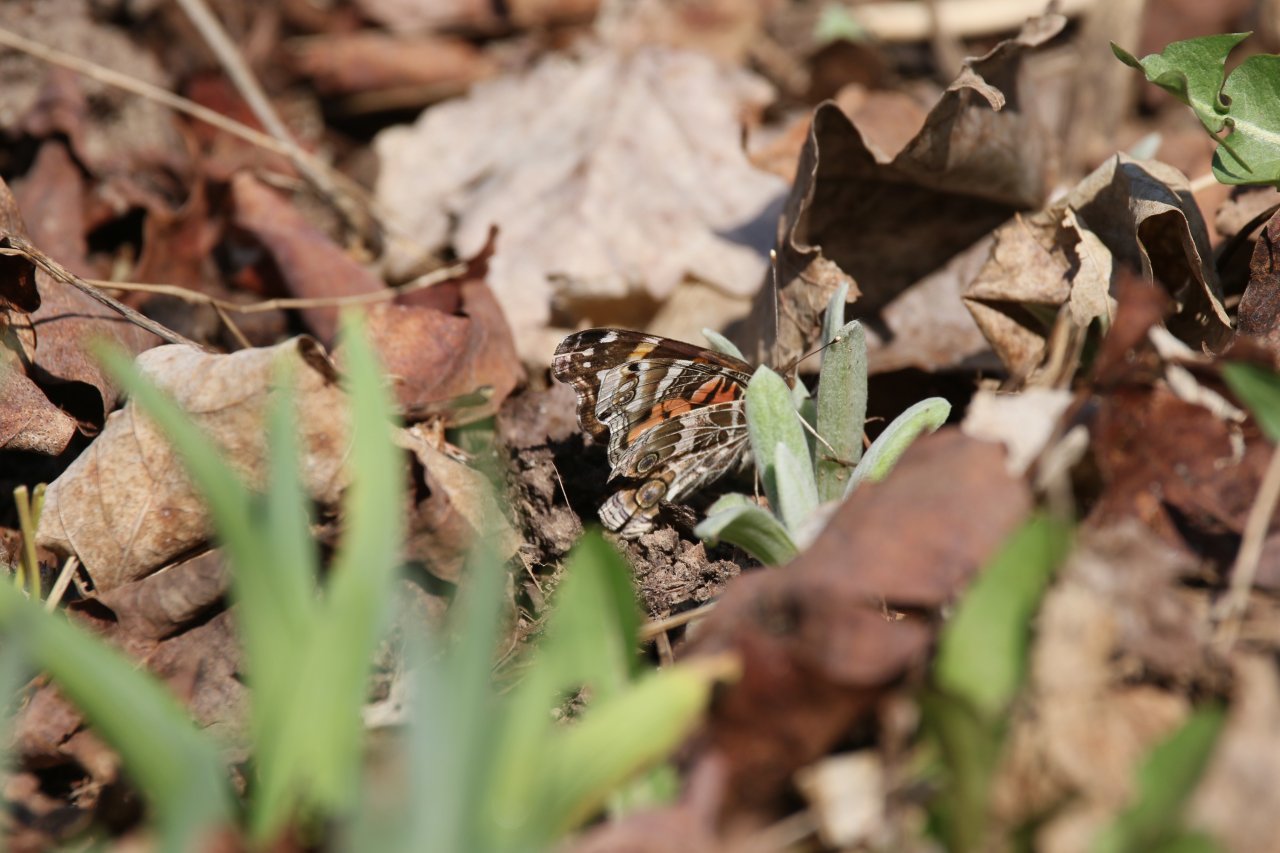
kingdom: Animalia
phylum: Arthropoda
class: Insecta
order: Lepidoptera
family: Nymphalidae
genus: Vanessa
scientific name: Vanessa virginiensis
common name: American Lady
